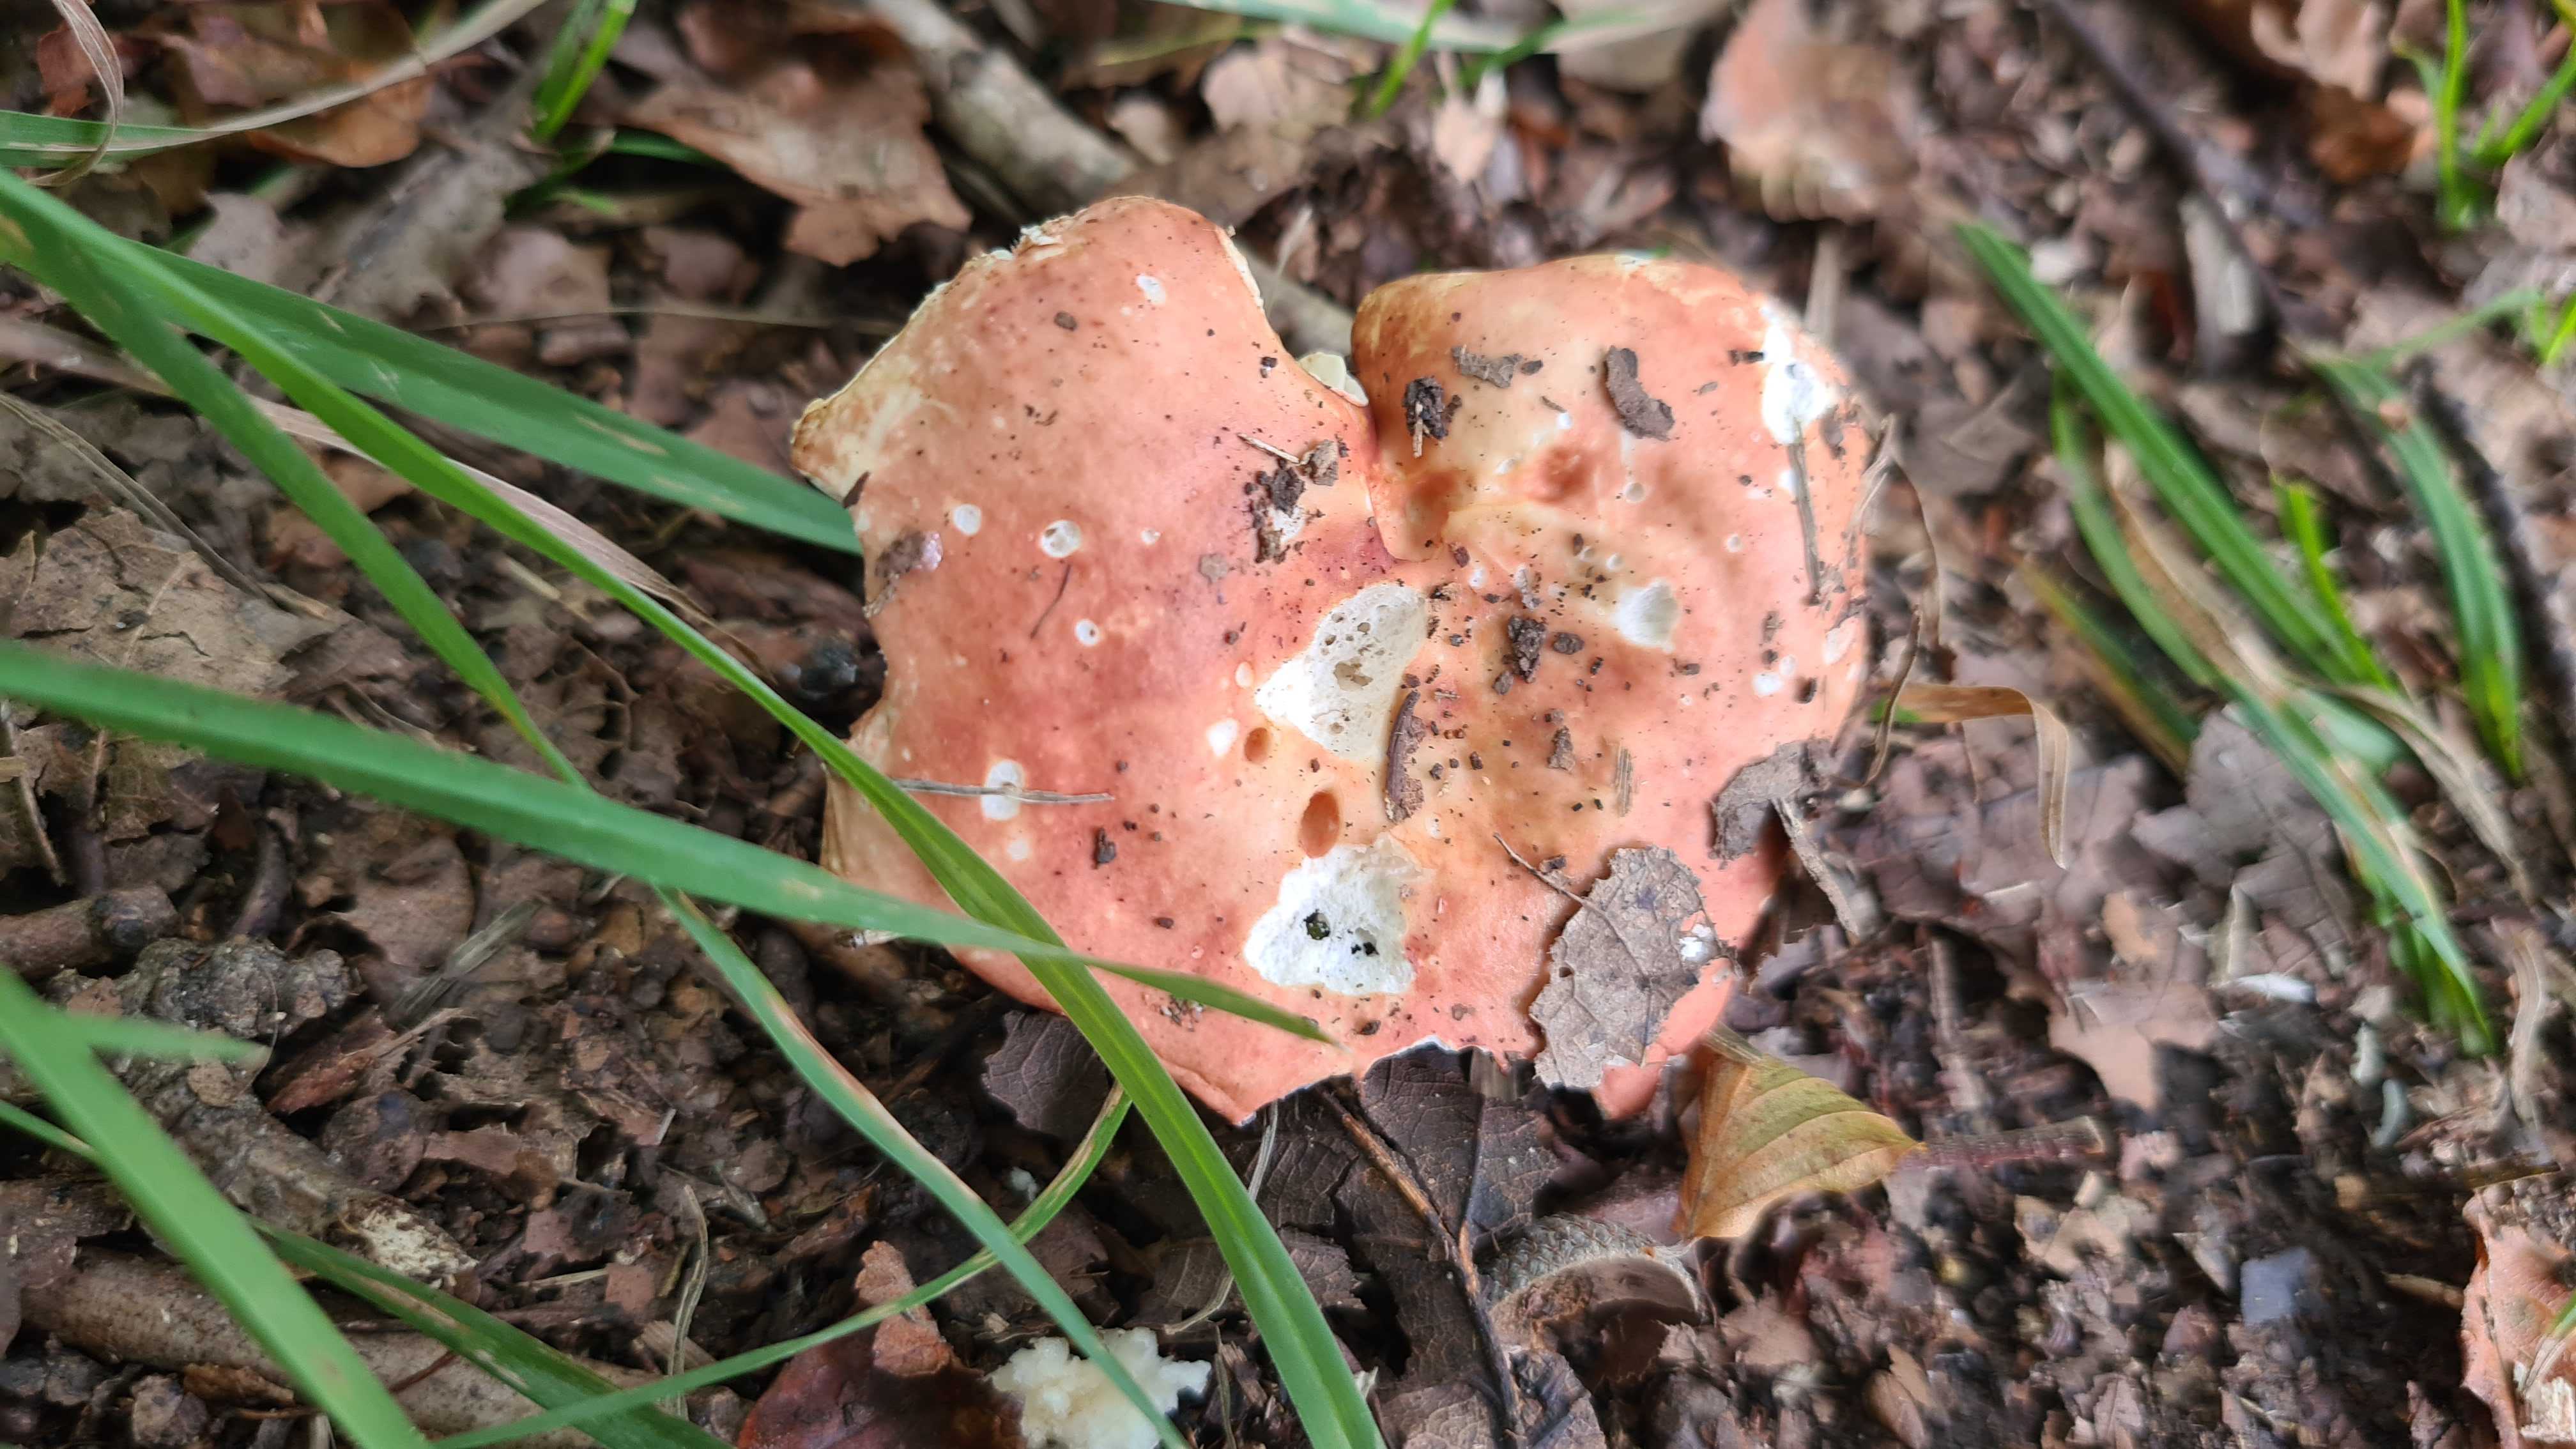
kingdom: Fungi
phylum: Basidiomycota
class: Agaricomycetes
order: Russulales
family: Russulaceae
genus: Russula
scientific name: Russula aurora
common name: rosa skørhat
